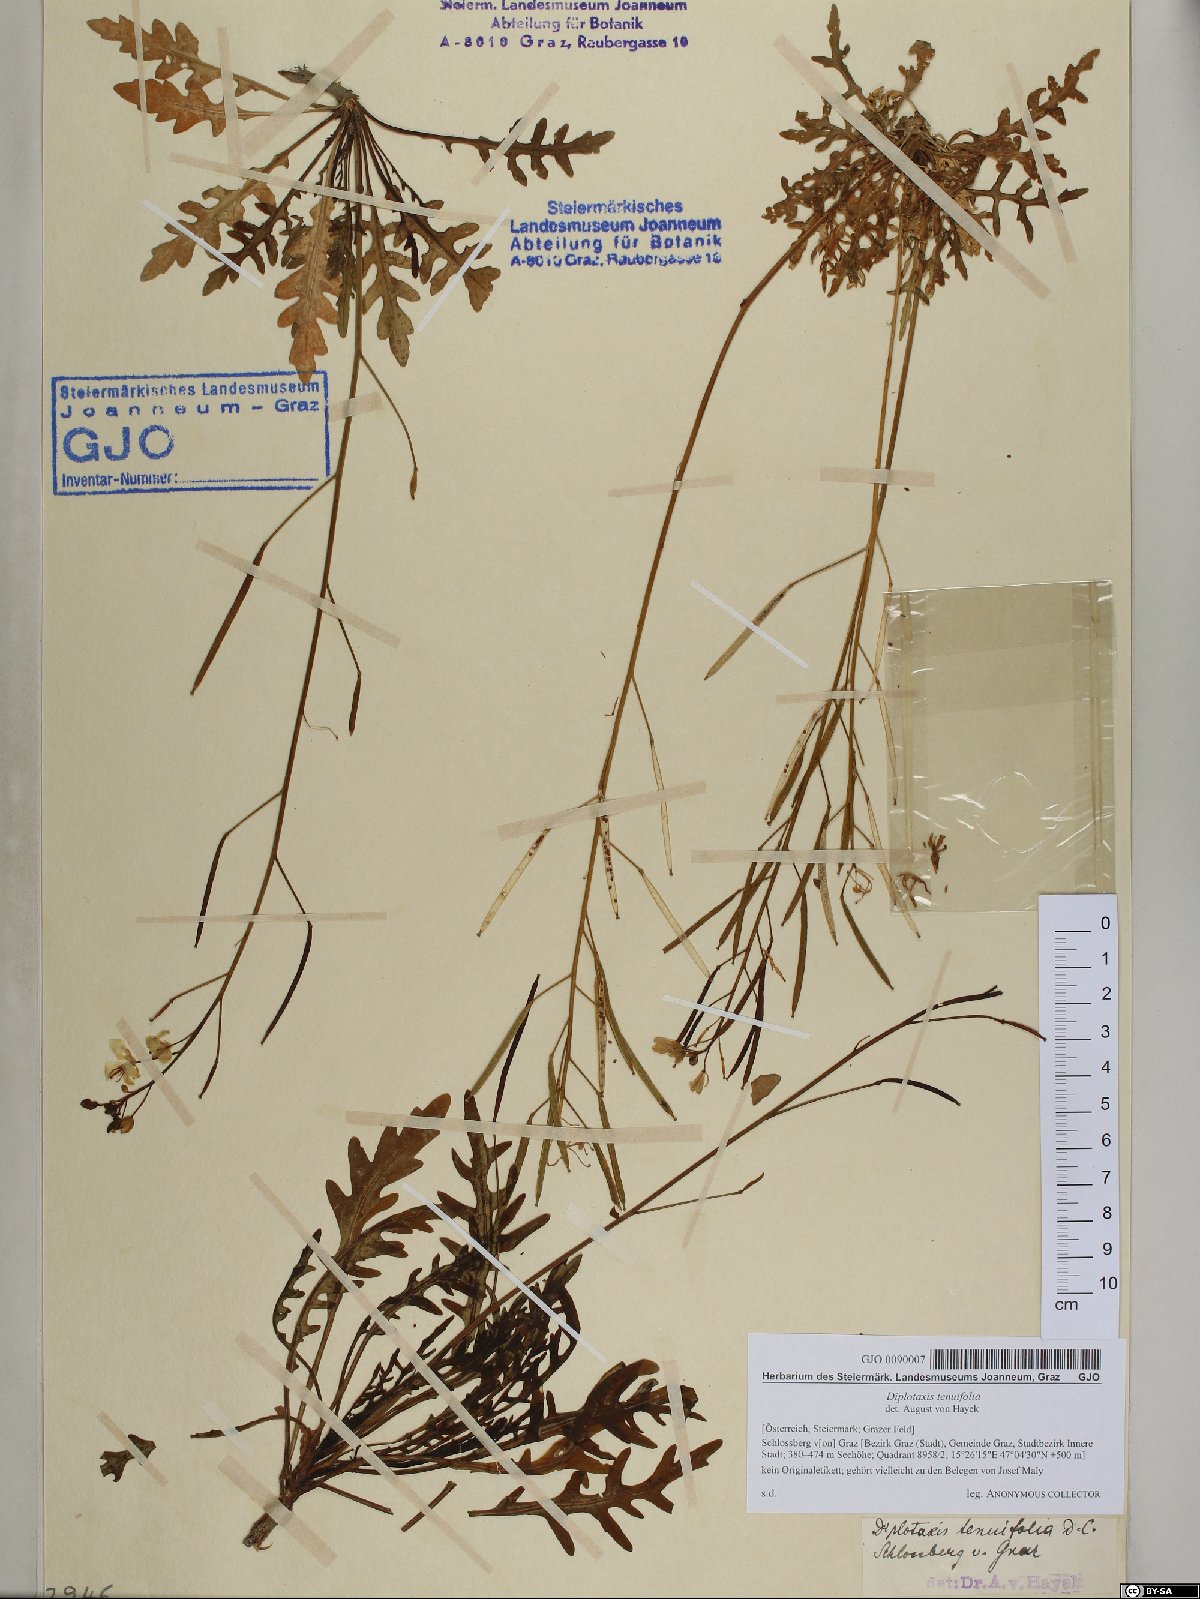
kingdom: Plantae
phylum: Tracheophyta
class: Magnoliopsida
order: Brassicales
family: Brassicaceae
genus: Diplotaxis
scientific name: Diplotaxis tenuifolia
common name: Perennial wall-rocket
